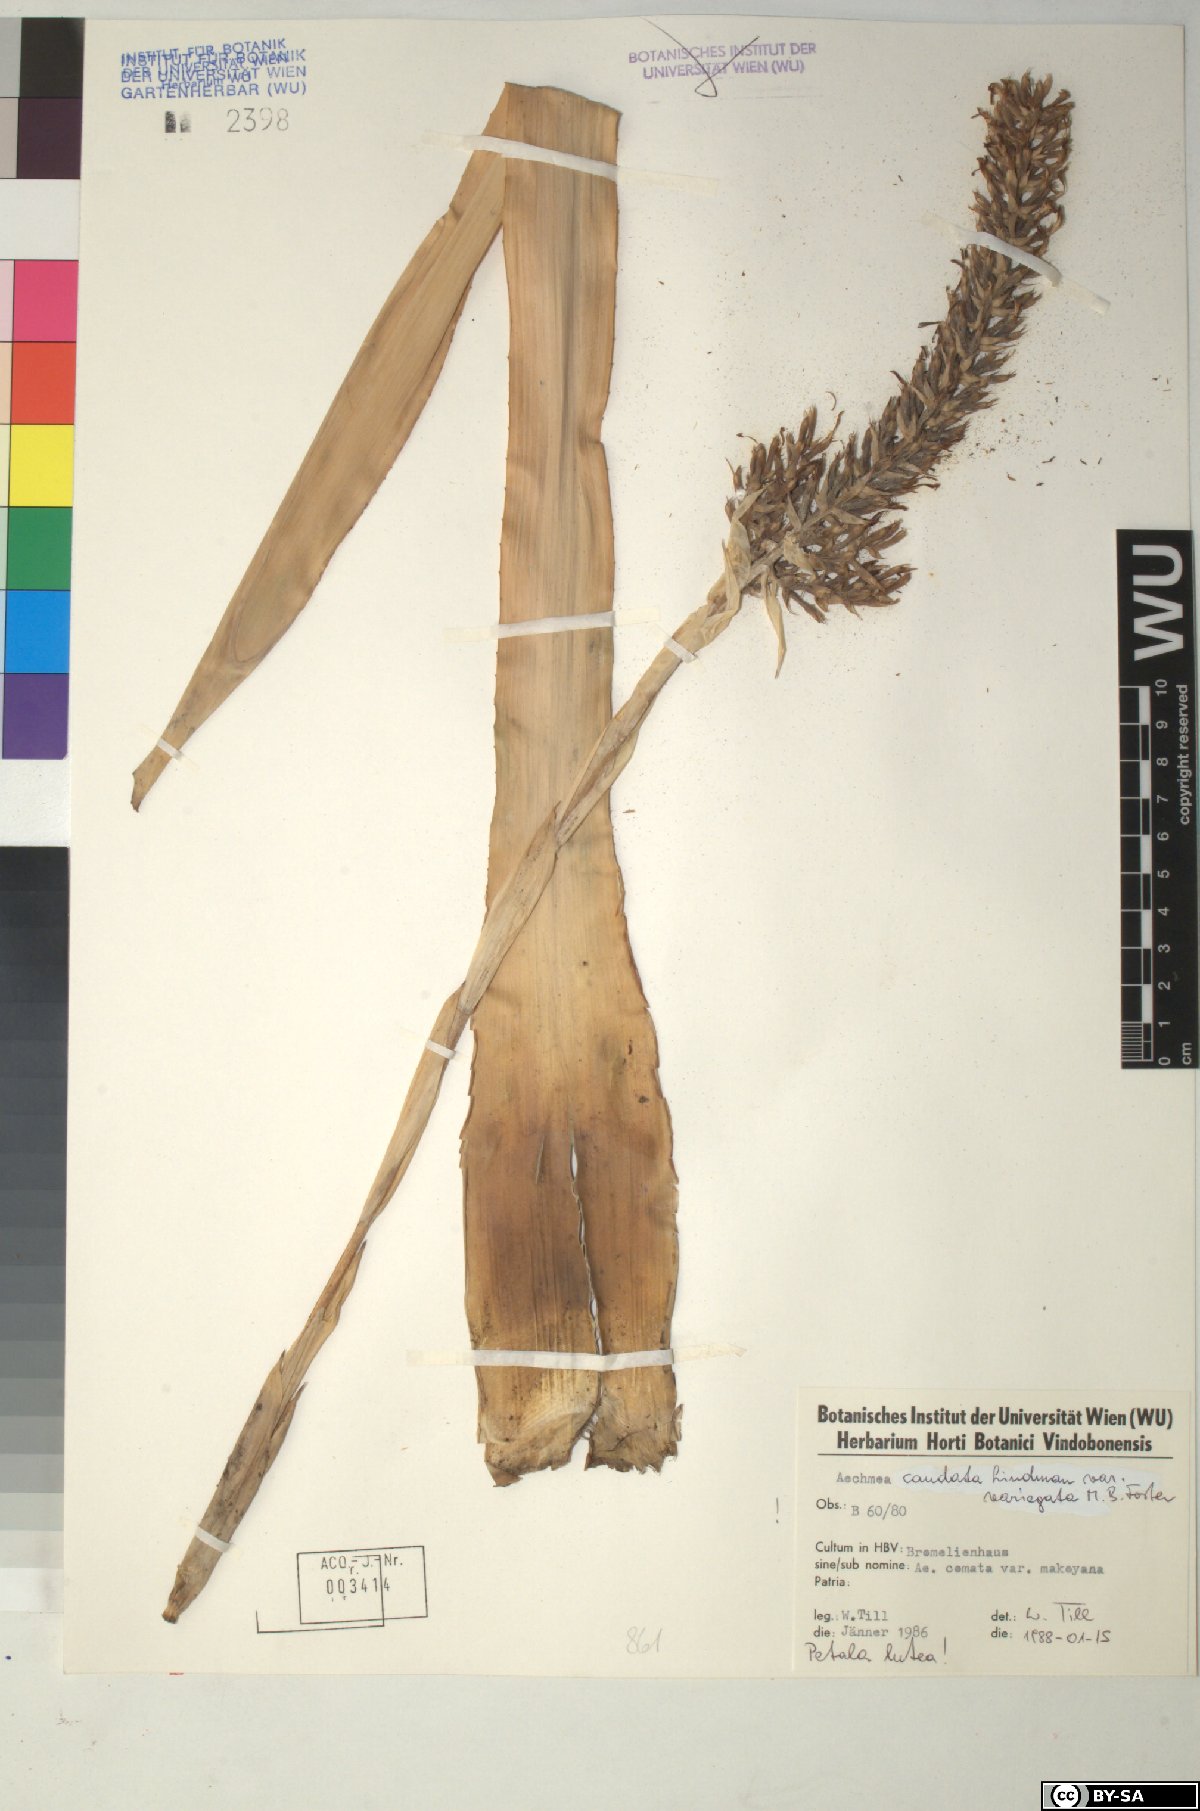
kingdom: Plantae
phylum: Tracheophyta
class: Liliopsida
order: Poales
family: Bromeliaceae
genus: Aechmea
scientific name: Aechmea caudata
